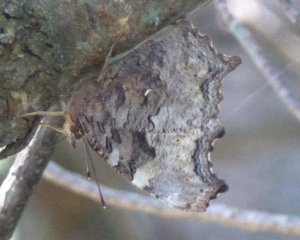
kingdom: Animalia
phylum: Arthropoda
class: Insecta
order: Lepidoptera
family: Nymphalidae
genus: Polygonia
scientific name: Polygonia vaualbum
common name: Compton Tortoiseshell
